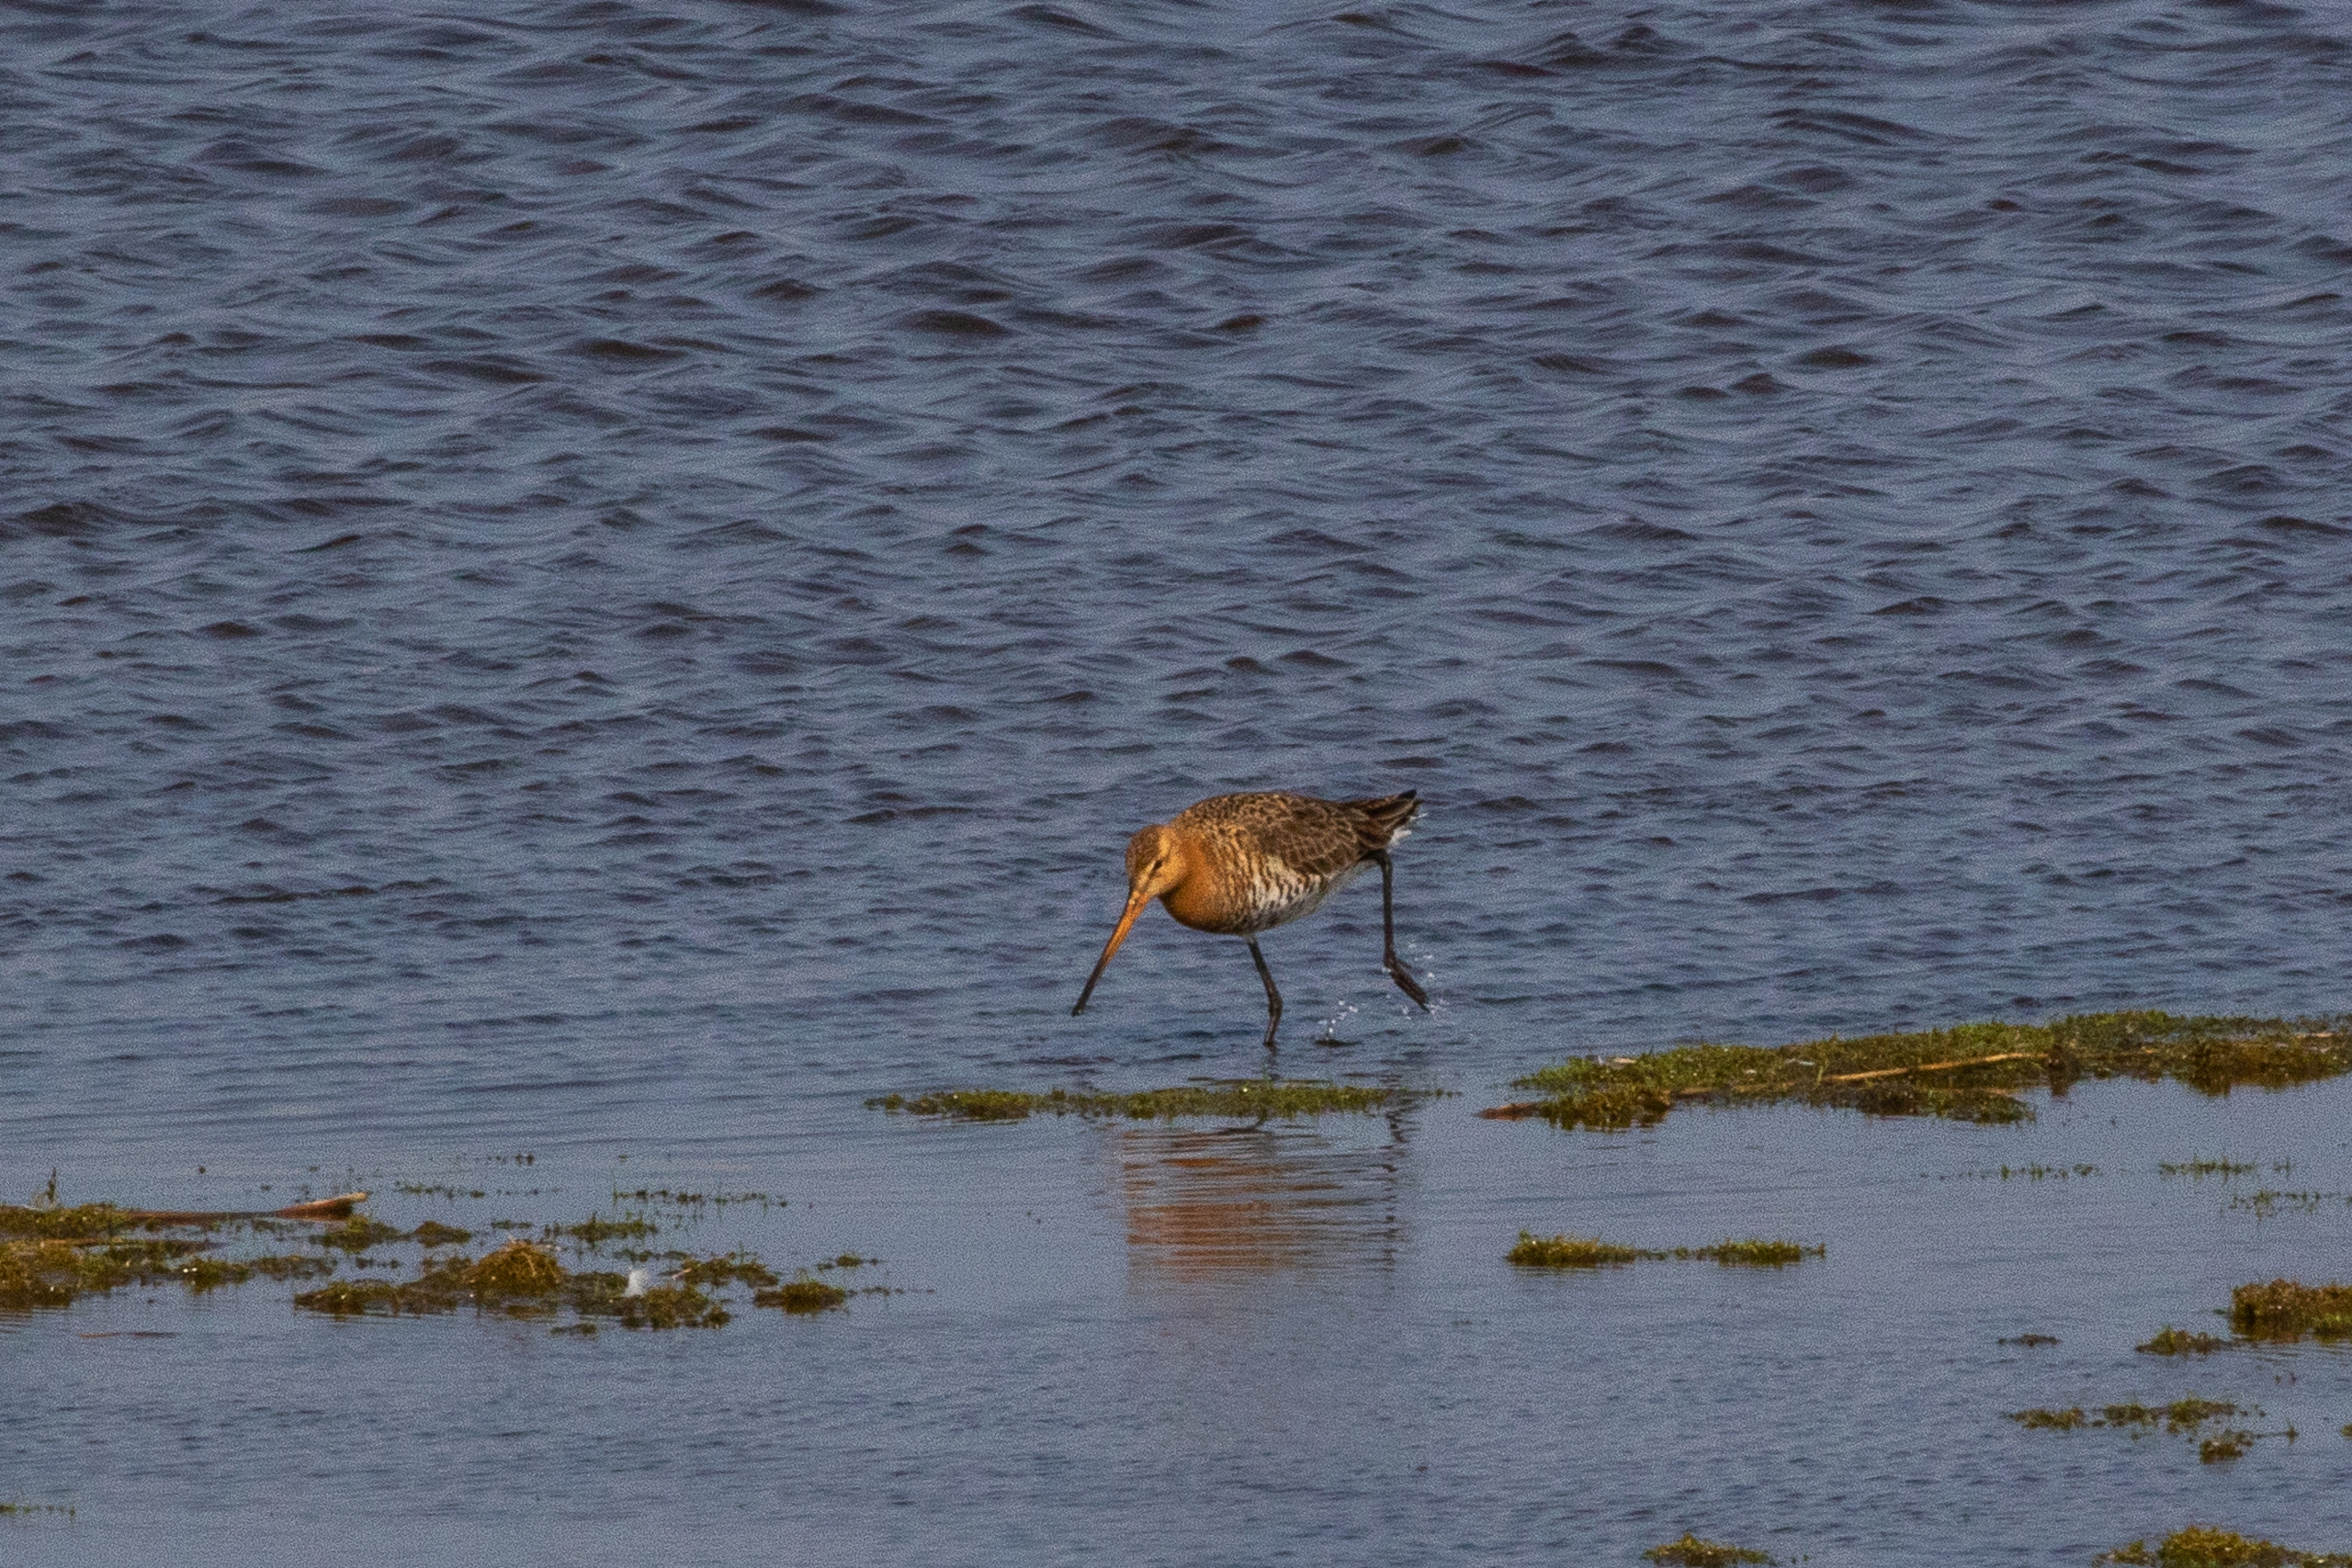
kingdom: Animalia
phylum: Chordata
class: Aves
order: Charadriiformes
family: Scolopacidae
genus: Limosa
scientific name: Limosa limosa
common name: Stor kobbersneppe
